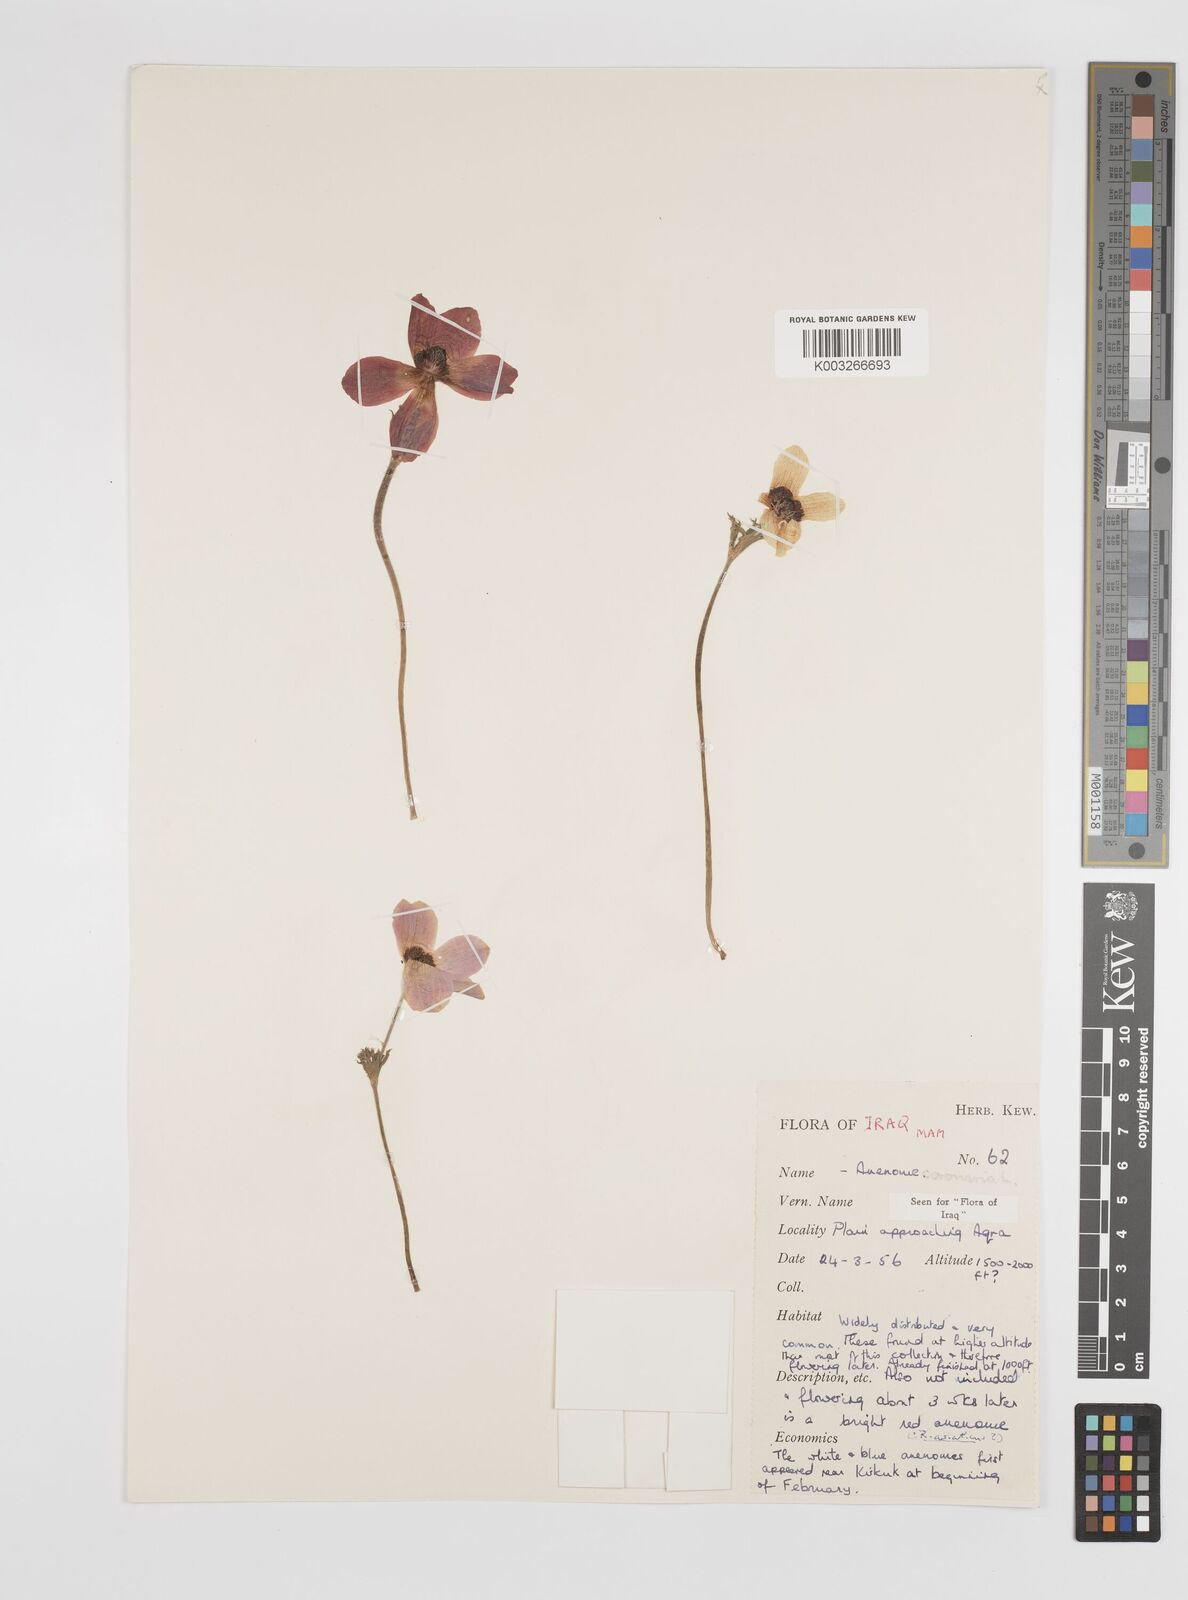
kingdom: Plantae
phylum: Tracheophyta
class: Magnoliopsida
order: Ranunculales
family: Ranunculaceae
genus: Anemone
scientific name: Anemone coronaria
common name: Poppy anemone
